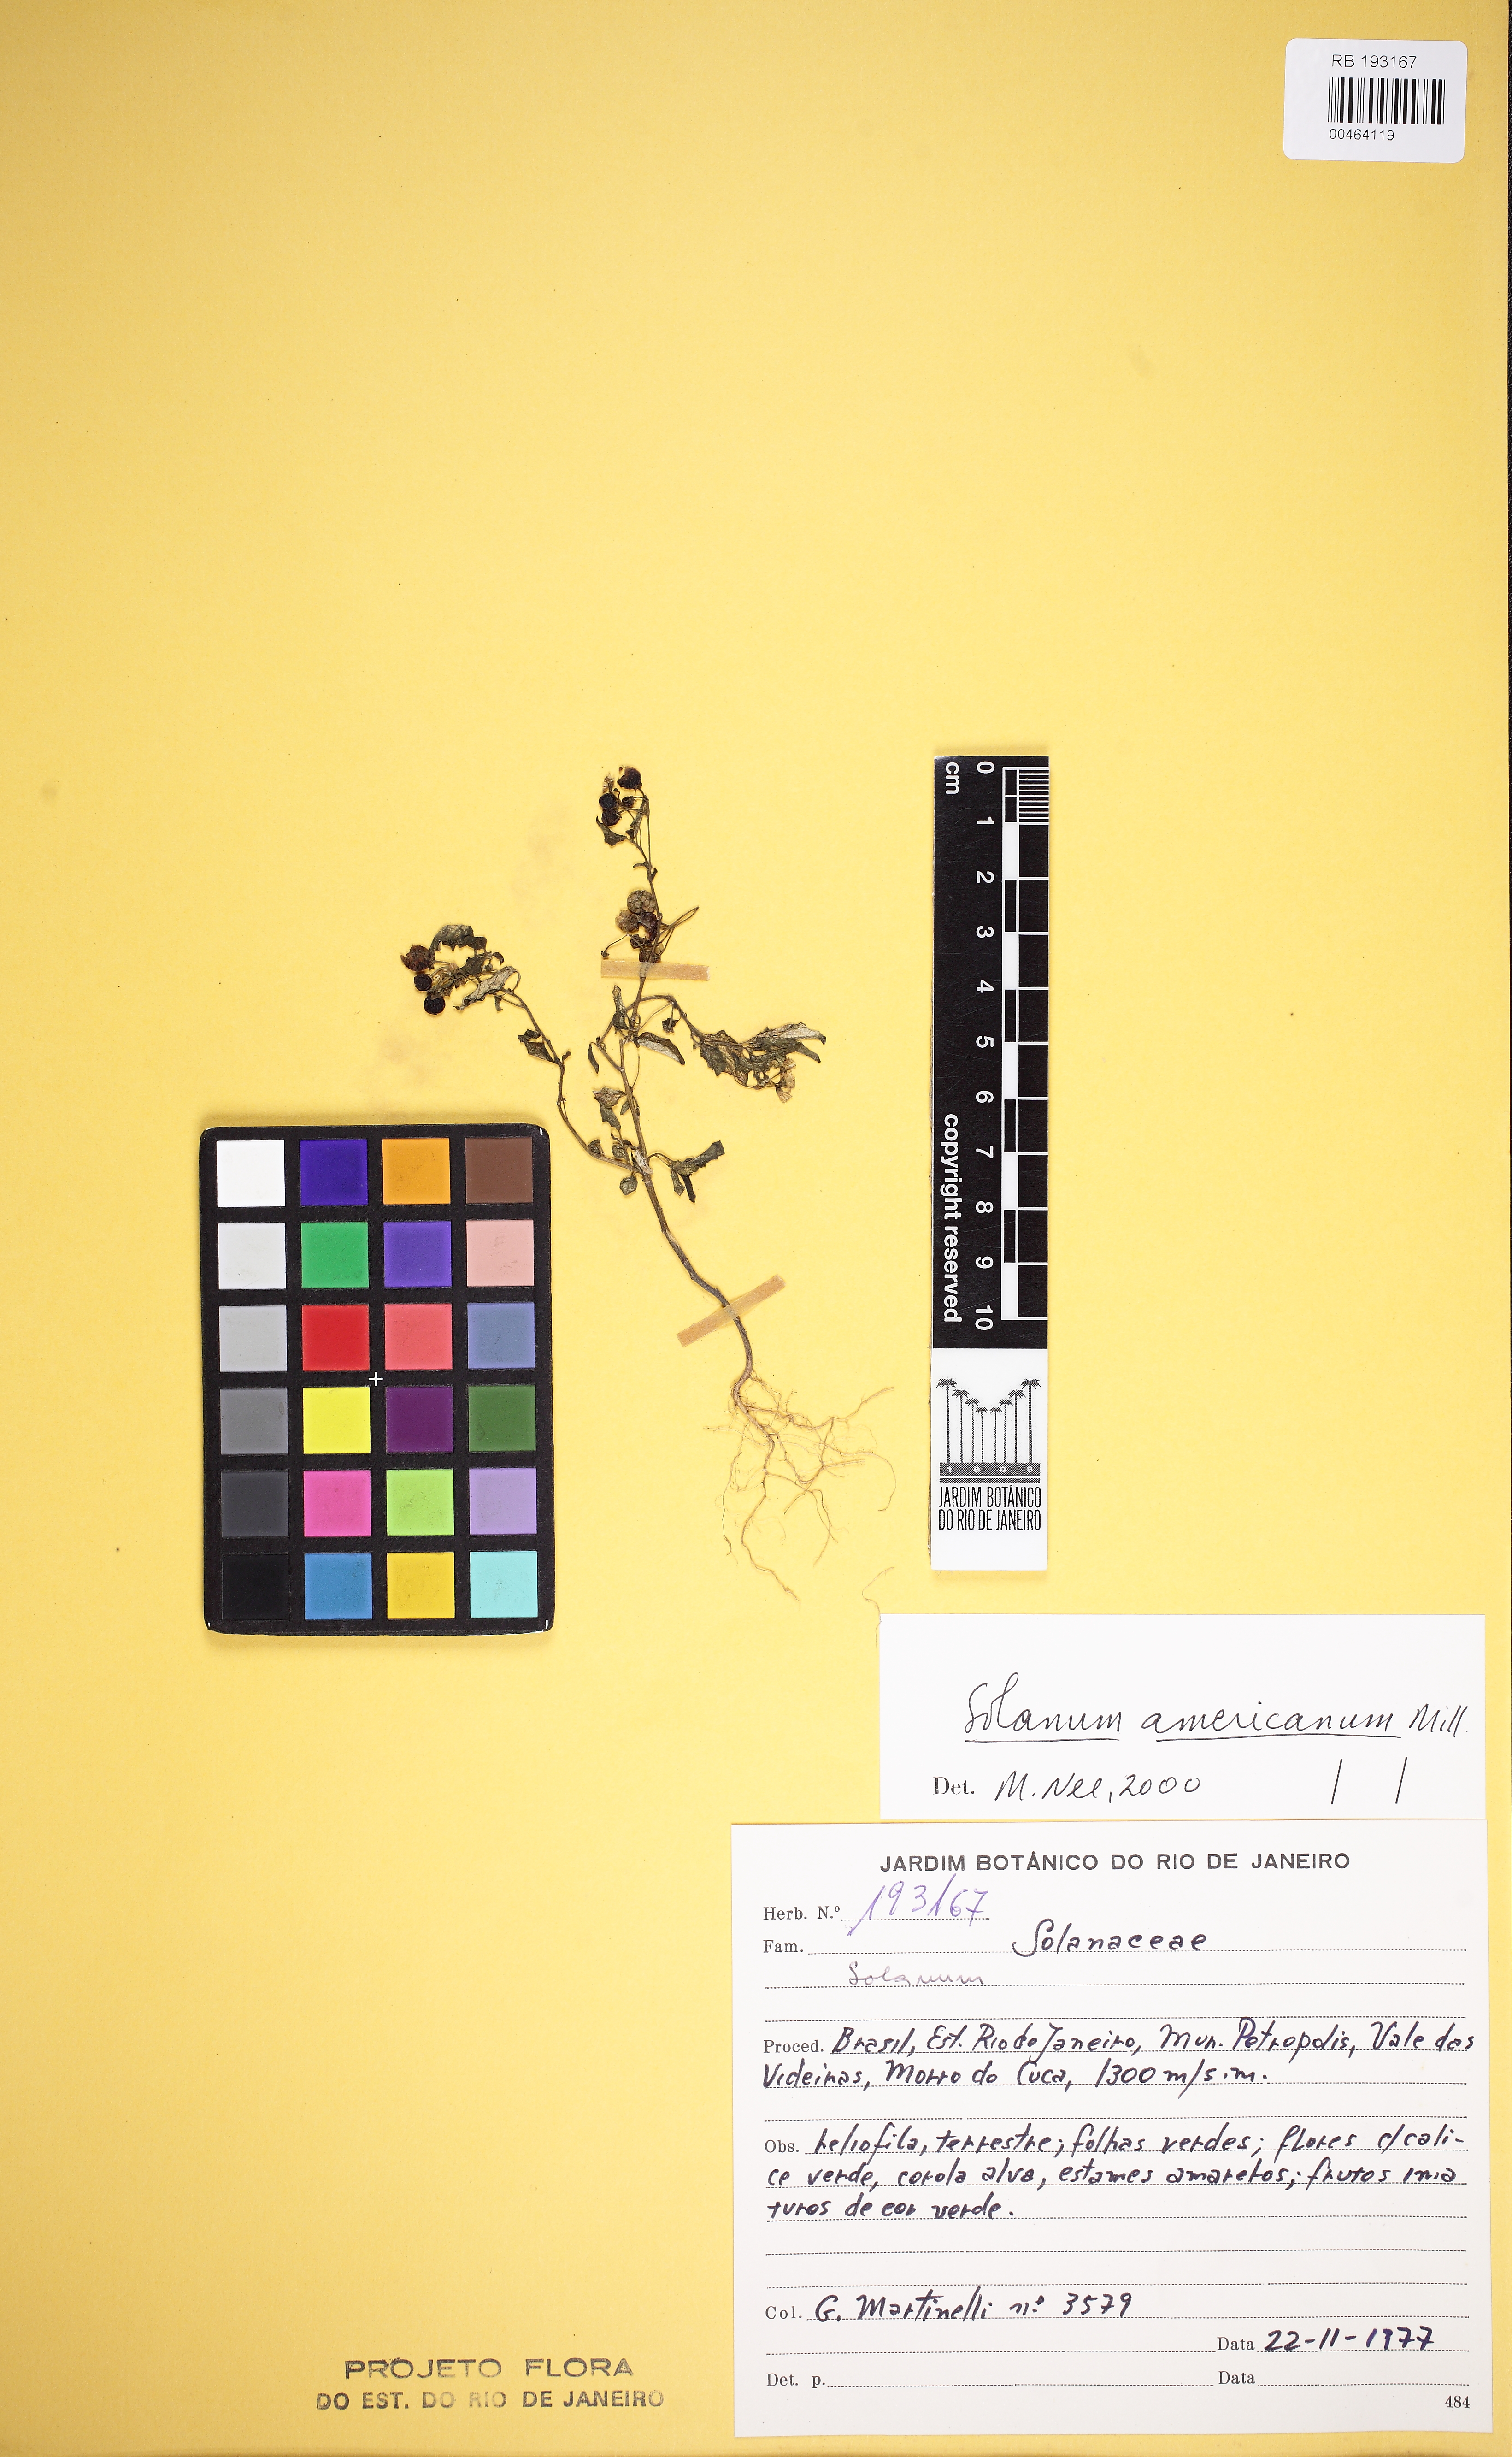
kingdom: Plantae
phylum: Tracheophyta
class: Magnoliopsida
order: Solanales
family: Solanaceae
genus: Solanum
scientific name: Solanum americanum
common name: American black nightshade
